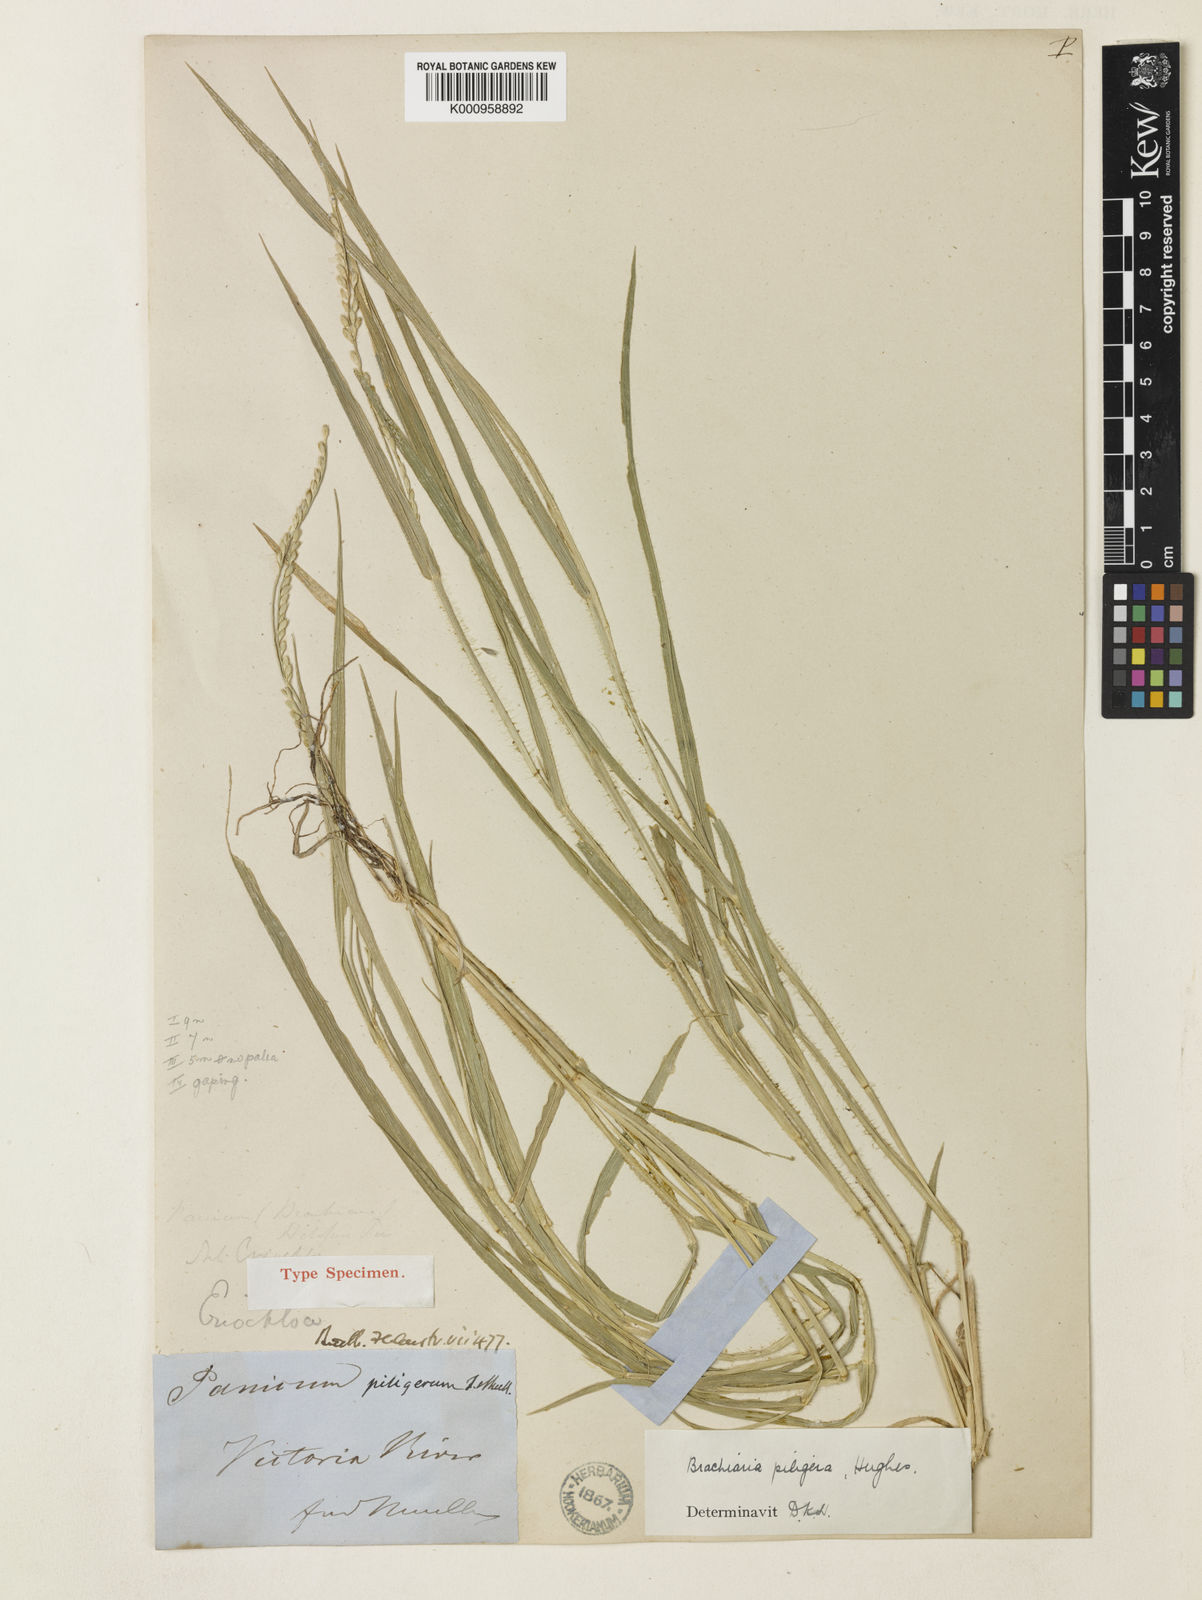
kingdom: Plantae
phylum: Tracheophyta
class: Liliopsida
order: Poales
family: Poaceae
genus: Urochloa
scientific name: Urochloa piligera
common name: Wattle signalgrass
